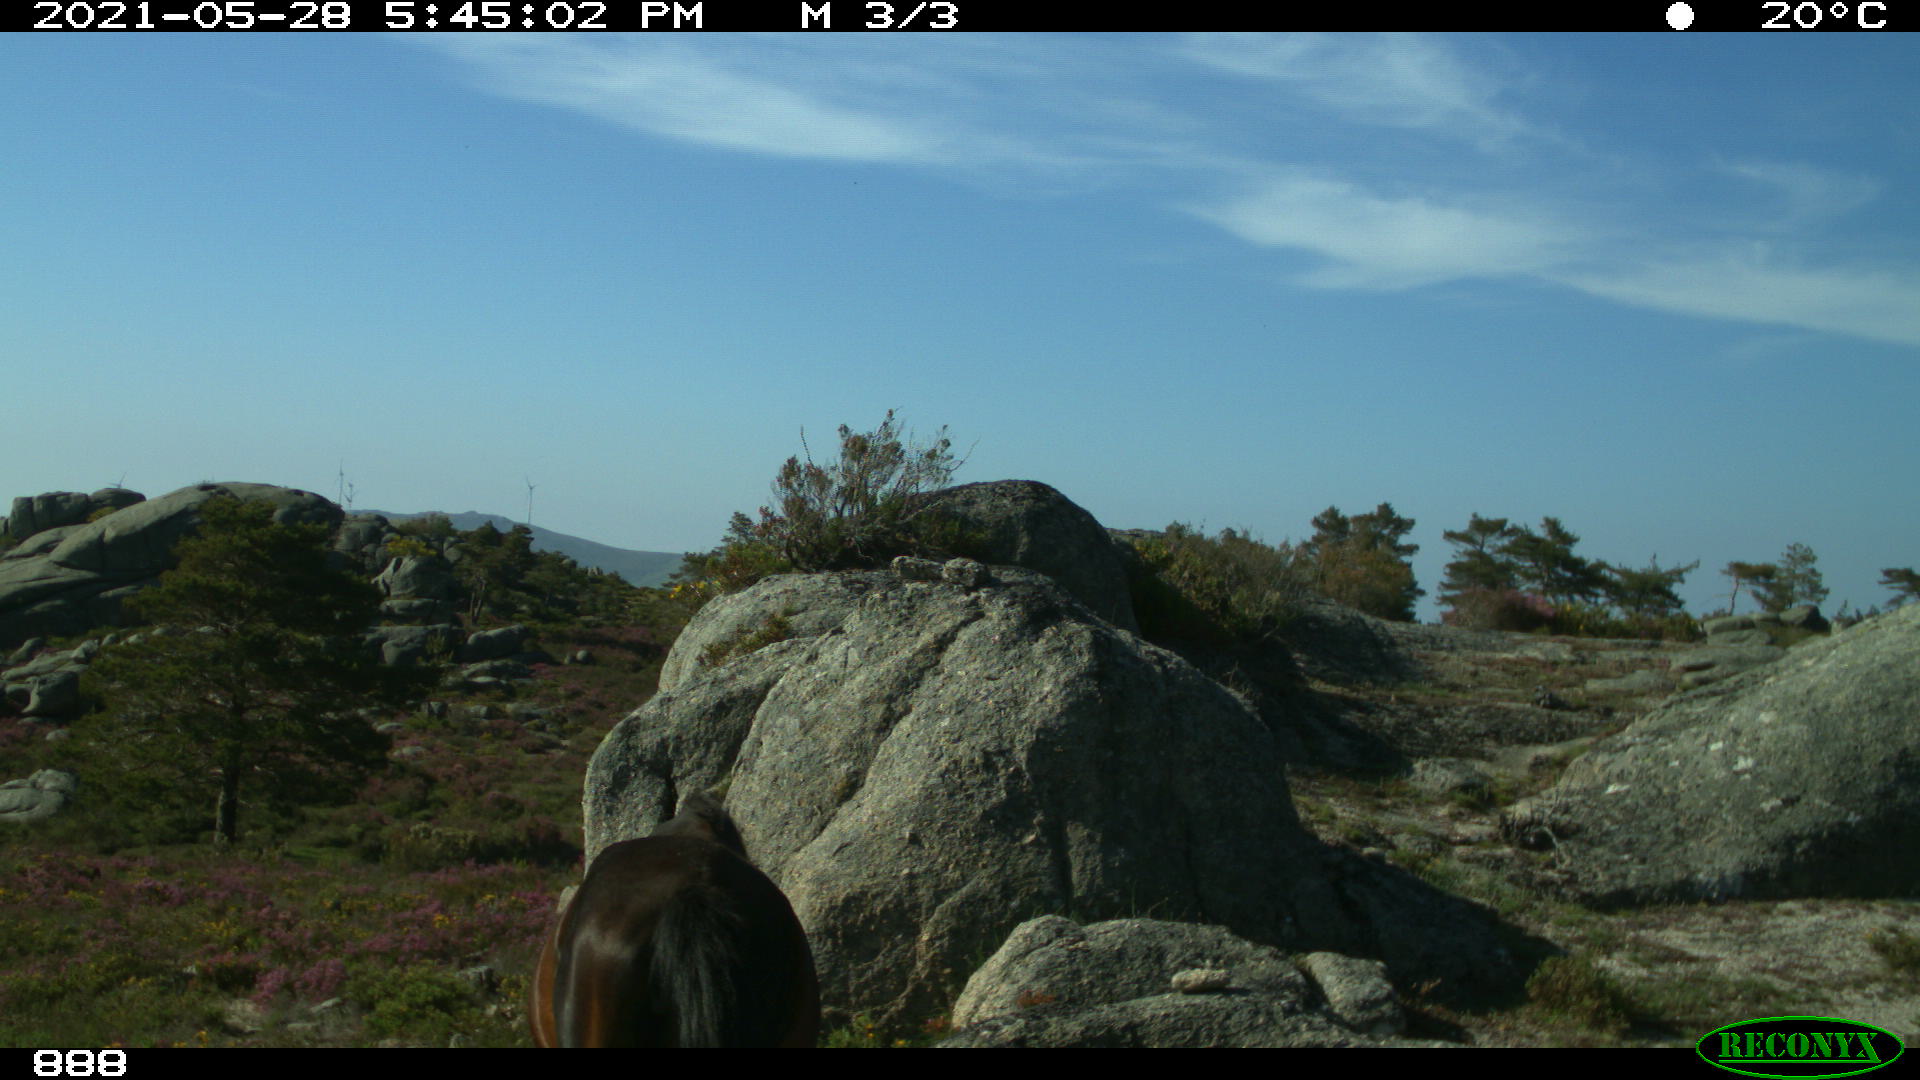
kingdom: Animalia
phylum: Chordata
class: Mammalia
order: Perissodactyla
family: Equidae
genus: Equus
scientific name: Equus caballus
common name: Horse
